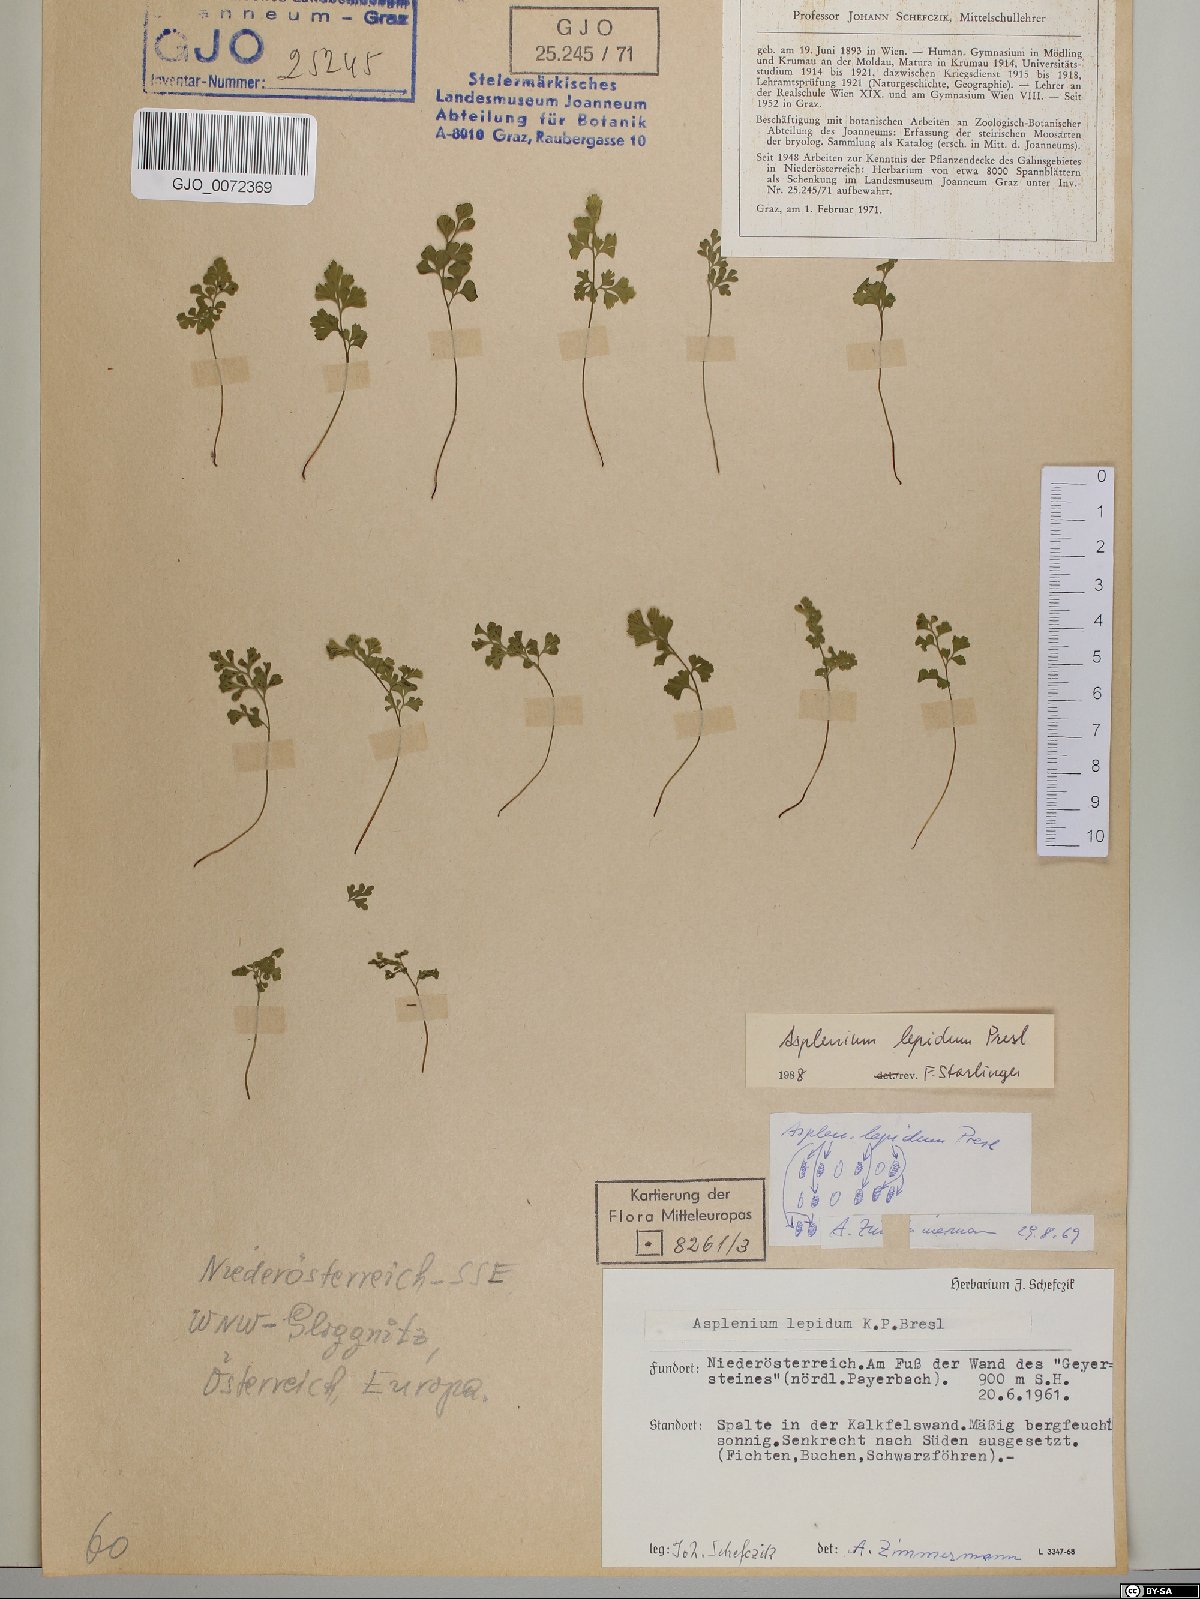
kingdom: Plantae
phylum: Tracheophyta
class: Polypodiopsida
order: Polypodiales
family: Aspleniaceae
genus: Asplenium
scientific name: Asplenium lepidum
